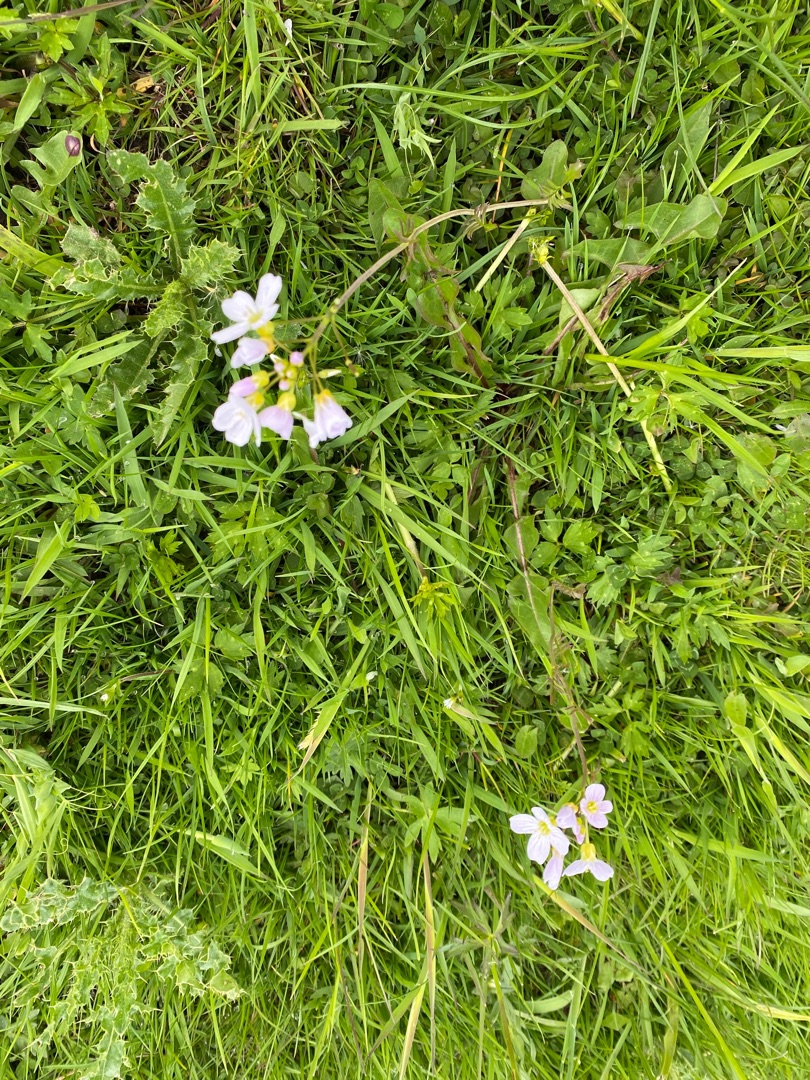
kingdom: Plantae
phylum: Tracheophyta
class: Magnoliopsida
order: Brassicales
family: Brassicaceae
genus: Cardamine
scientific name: Cardamine pratensis
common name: Engkarse
